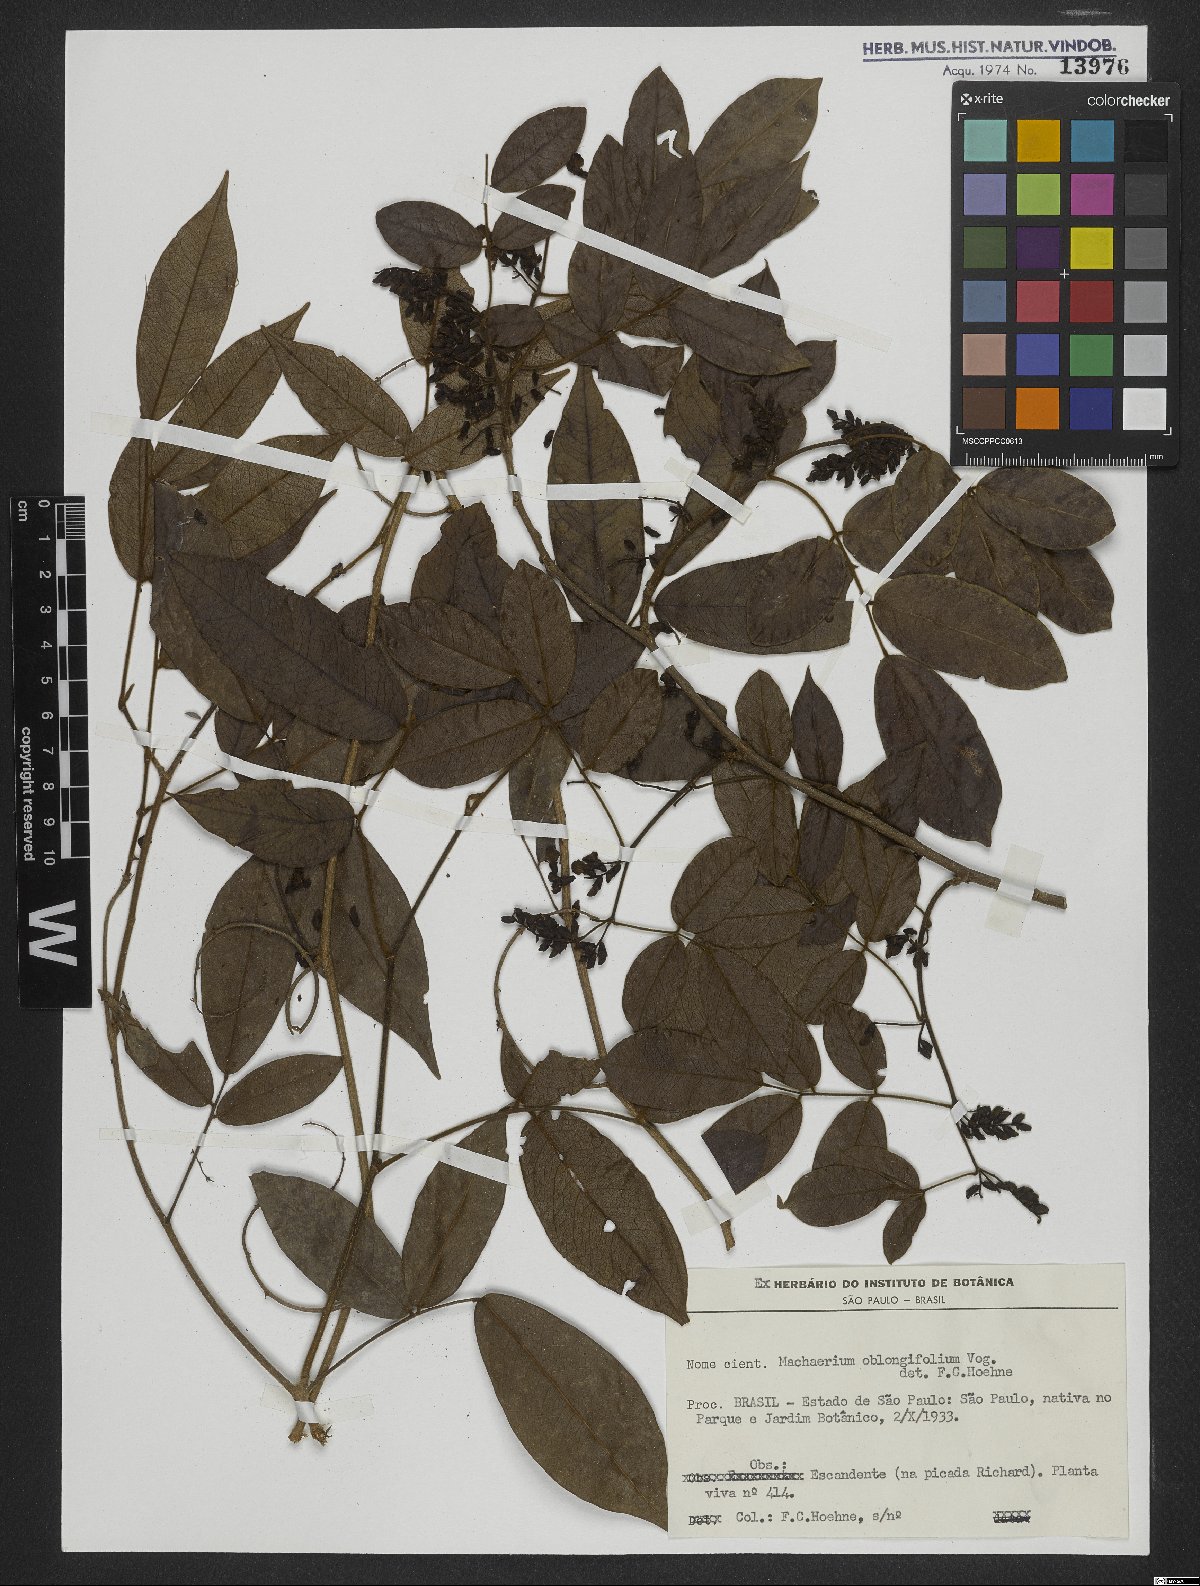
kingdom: Plantae
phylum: Tracheophyta
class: Magnoliopsida
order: Fabales
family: Fabaceae
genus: Machaerium
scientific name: Machaerium oblongifolium
